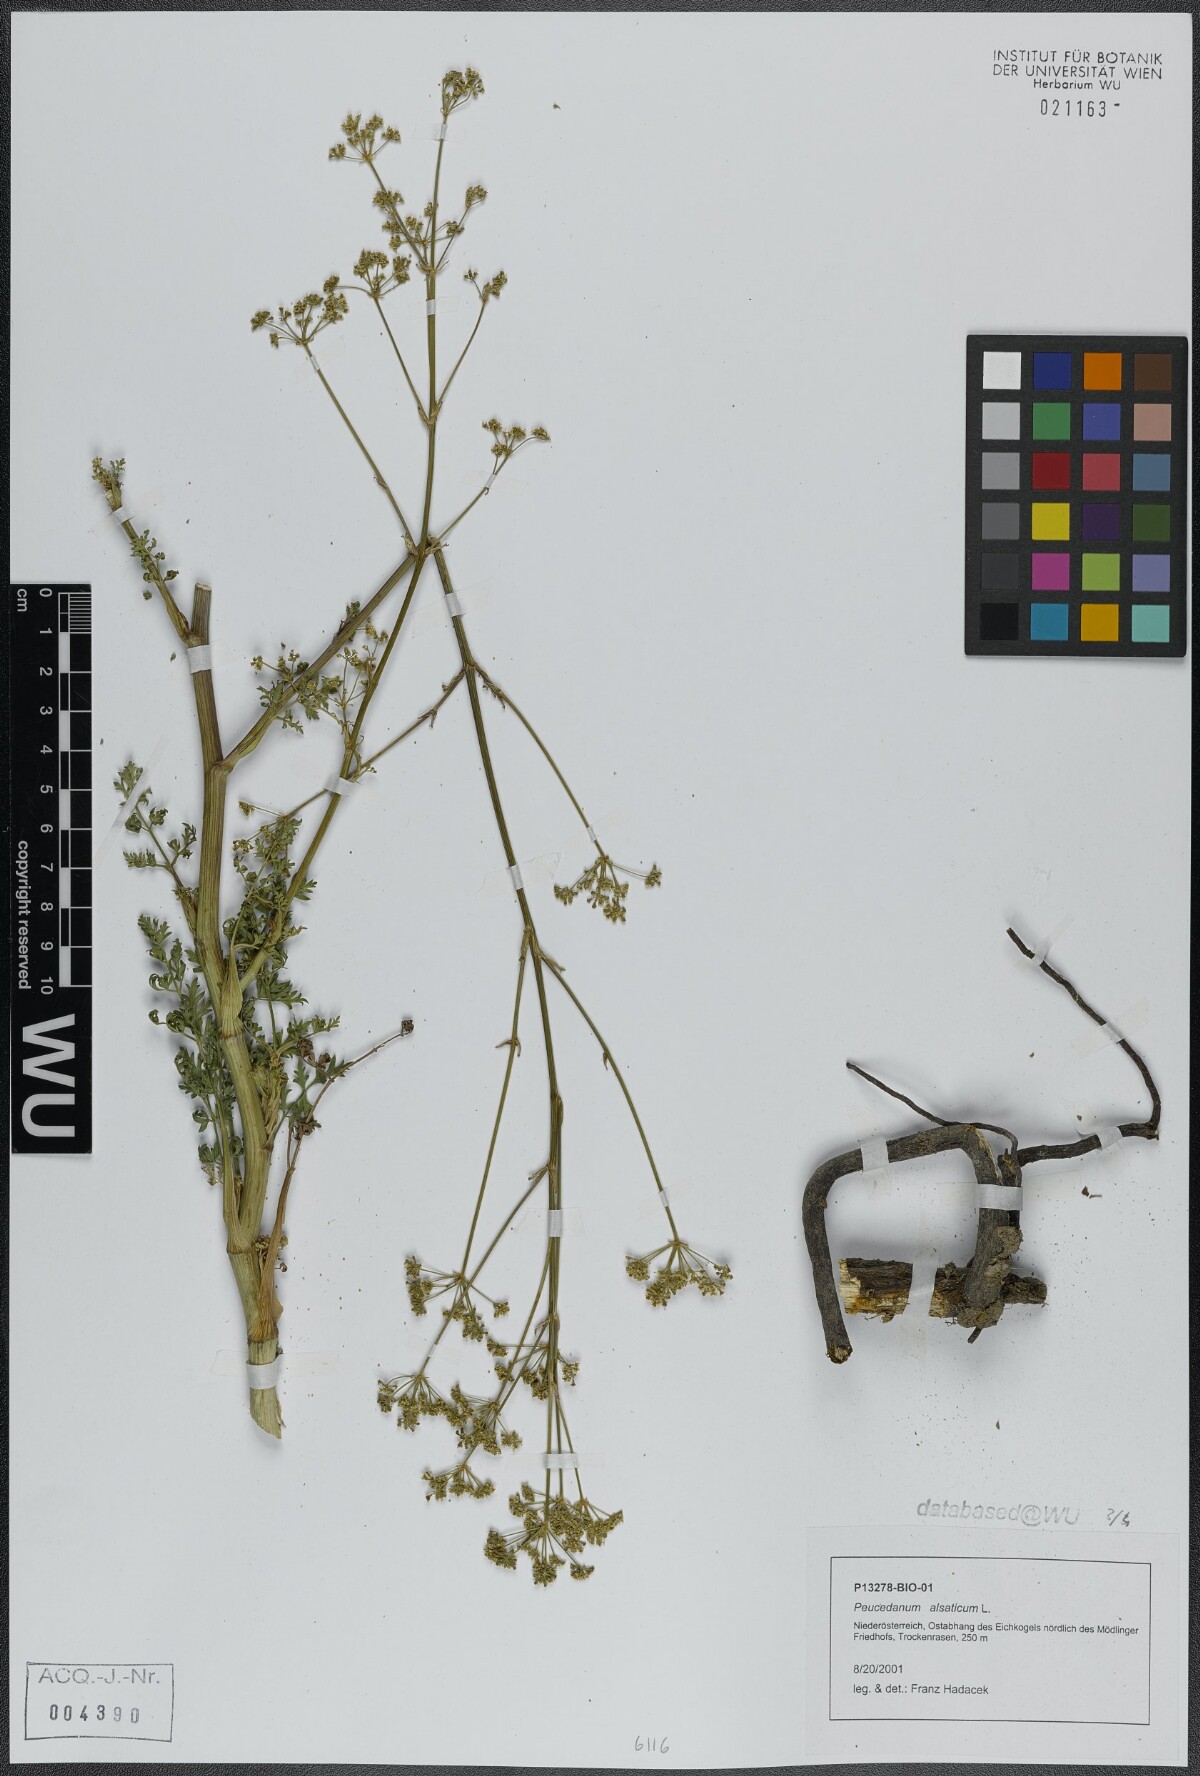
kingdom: Plantae
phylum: Tracheophyta
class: Magnoliopsida
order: Apiales
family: Apiaceae
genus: Xanthoselinum
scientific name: Xanthoselinum alsaticum
